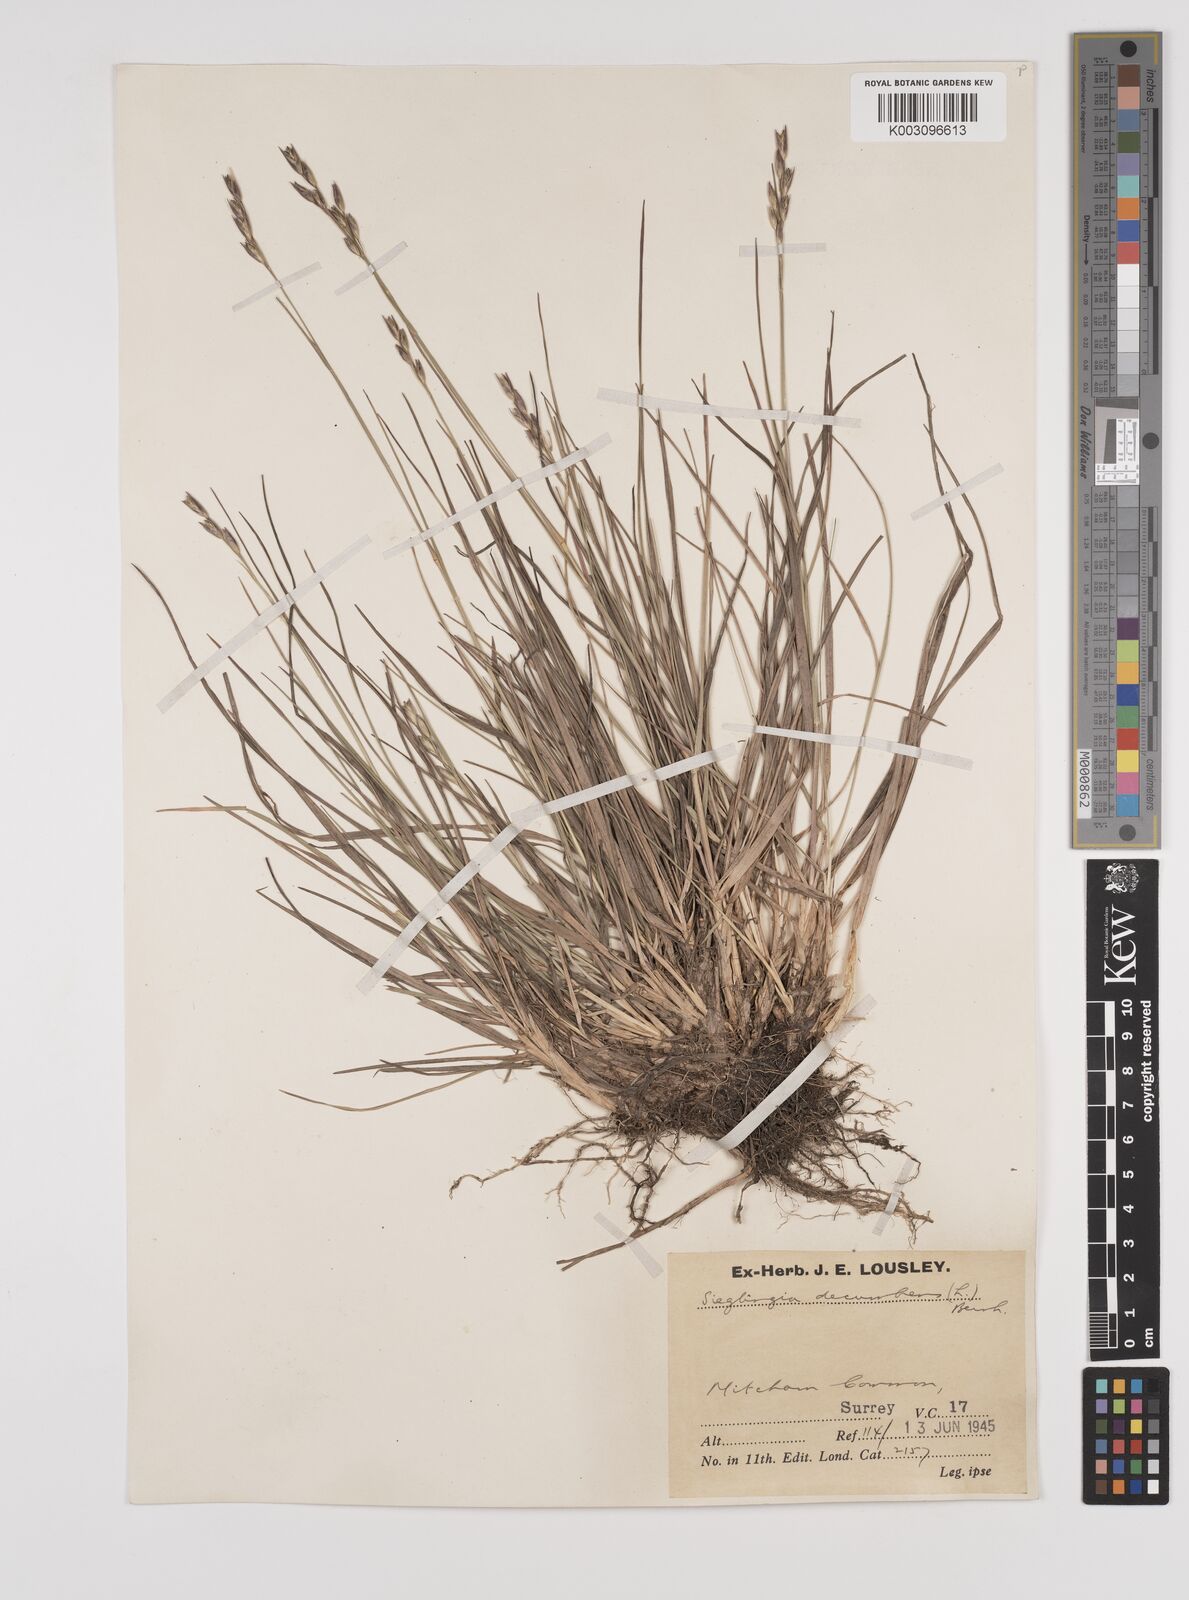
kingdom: Plantae
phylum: Tracheophyta
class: Liliopsida
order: Poales
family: Poaceae
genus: Danthonia
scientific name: Danthonia decumbens
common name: Common heathgrass
